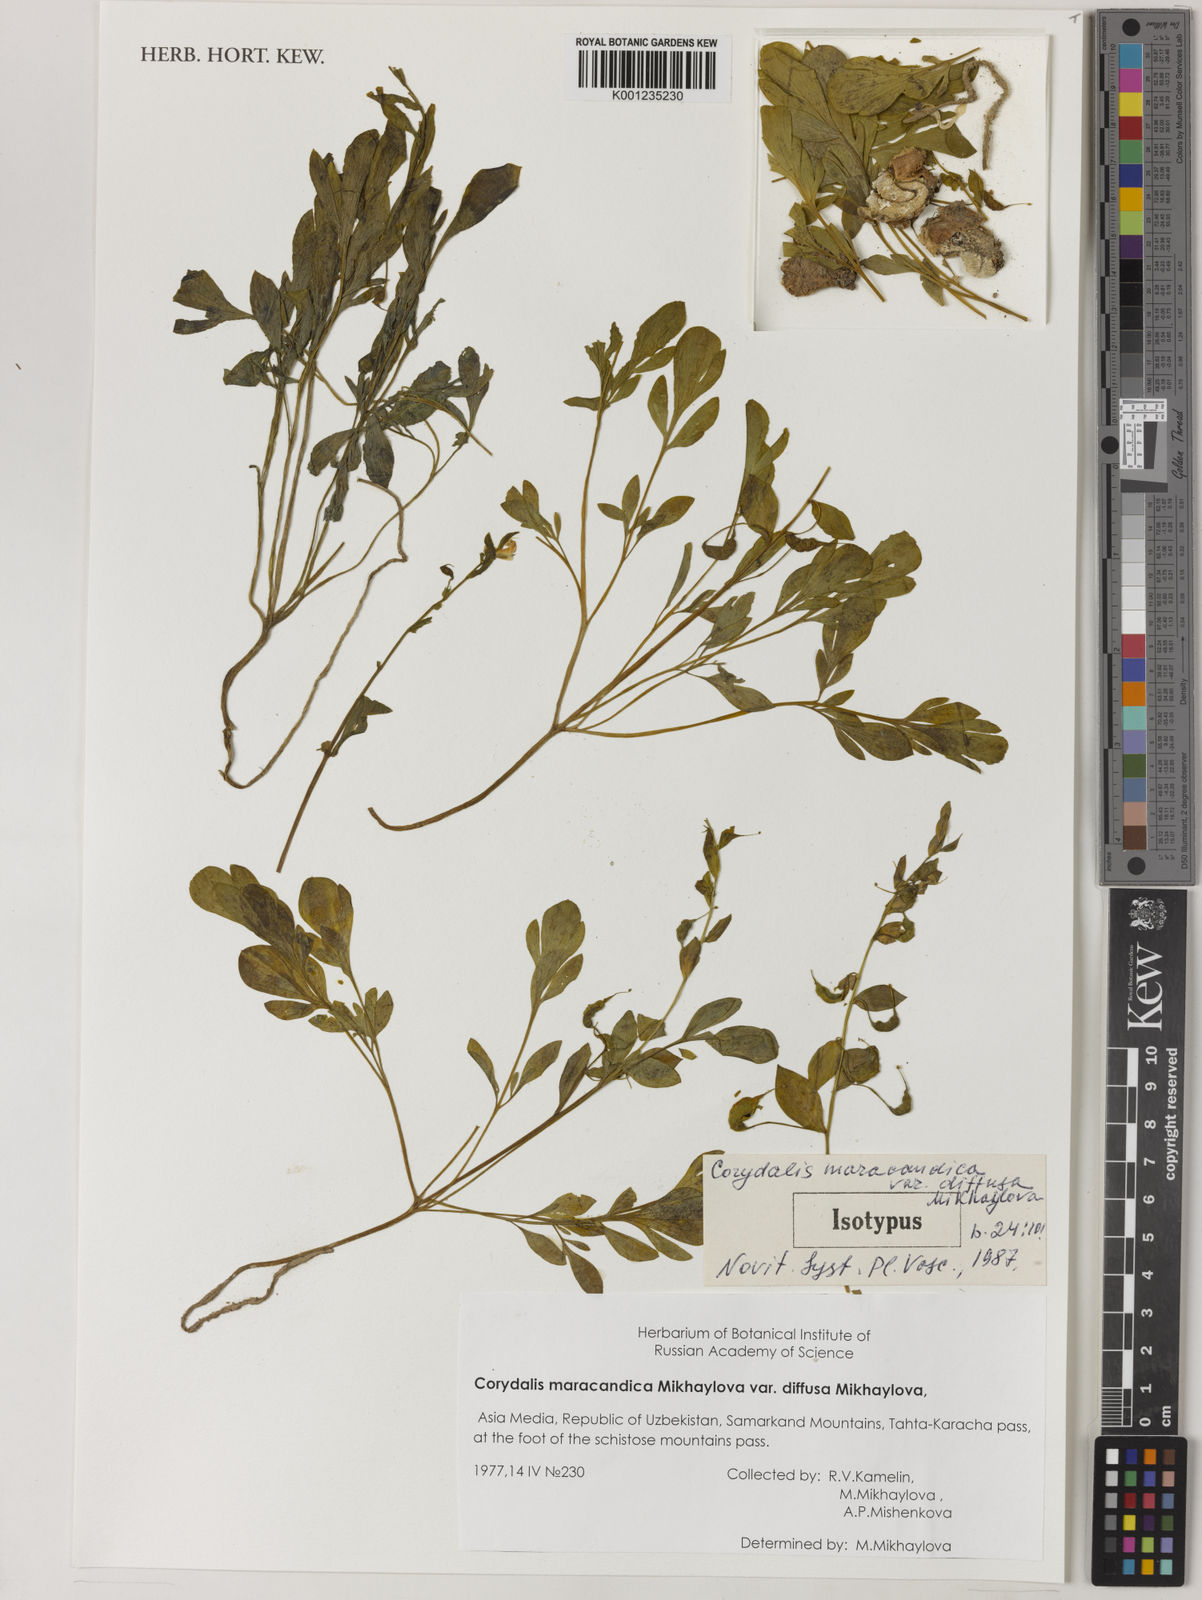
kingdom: Plantae
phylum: Tracheophyta
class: Magnoliopsida
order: Ranunculales
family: Papaveraceae
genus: Corydalis
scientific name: Corydalis
